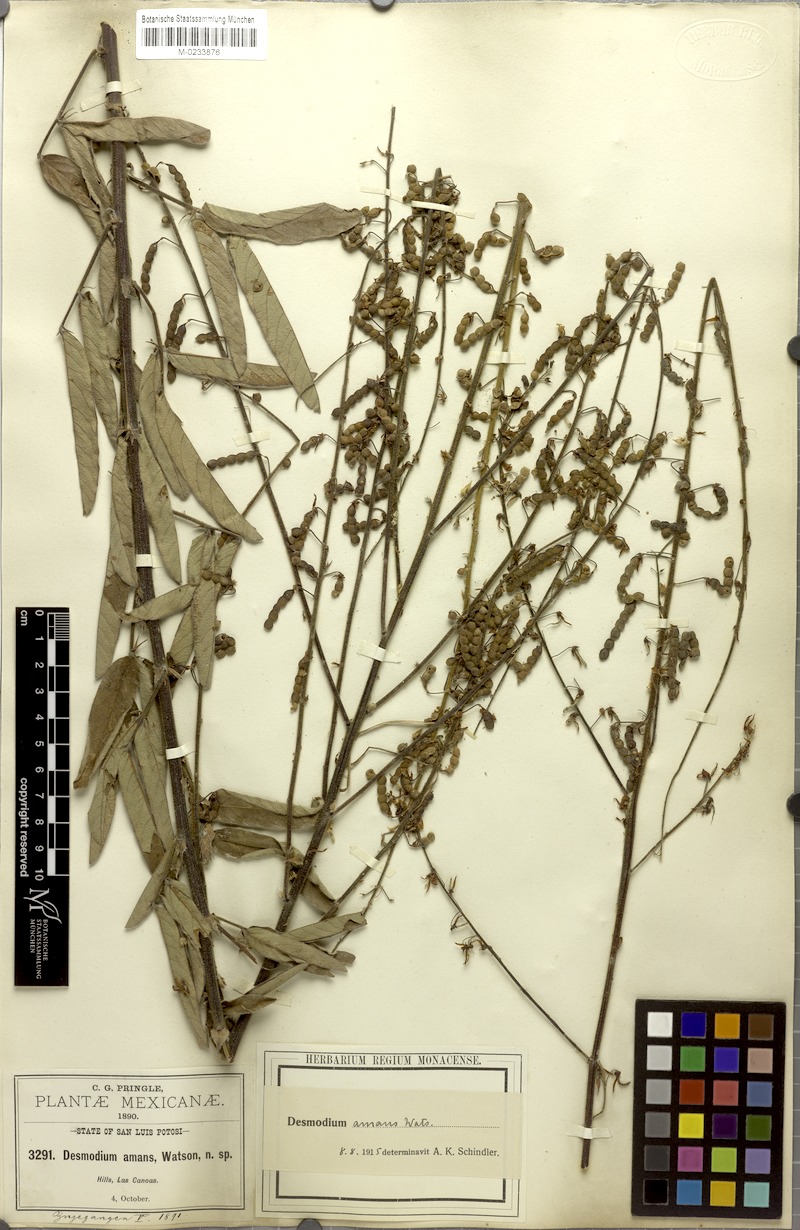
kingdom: Plantae
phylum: Tracheophyta
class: Magnoliopsida
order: Fabales
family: Fabaceae
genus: Desmodium
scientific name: Desmodium hartwegianum
